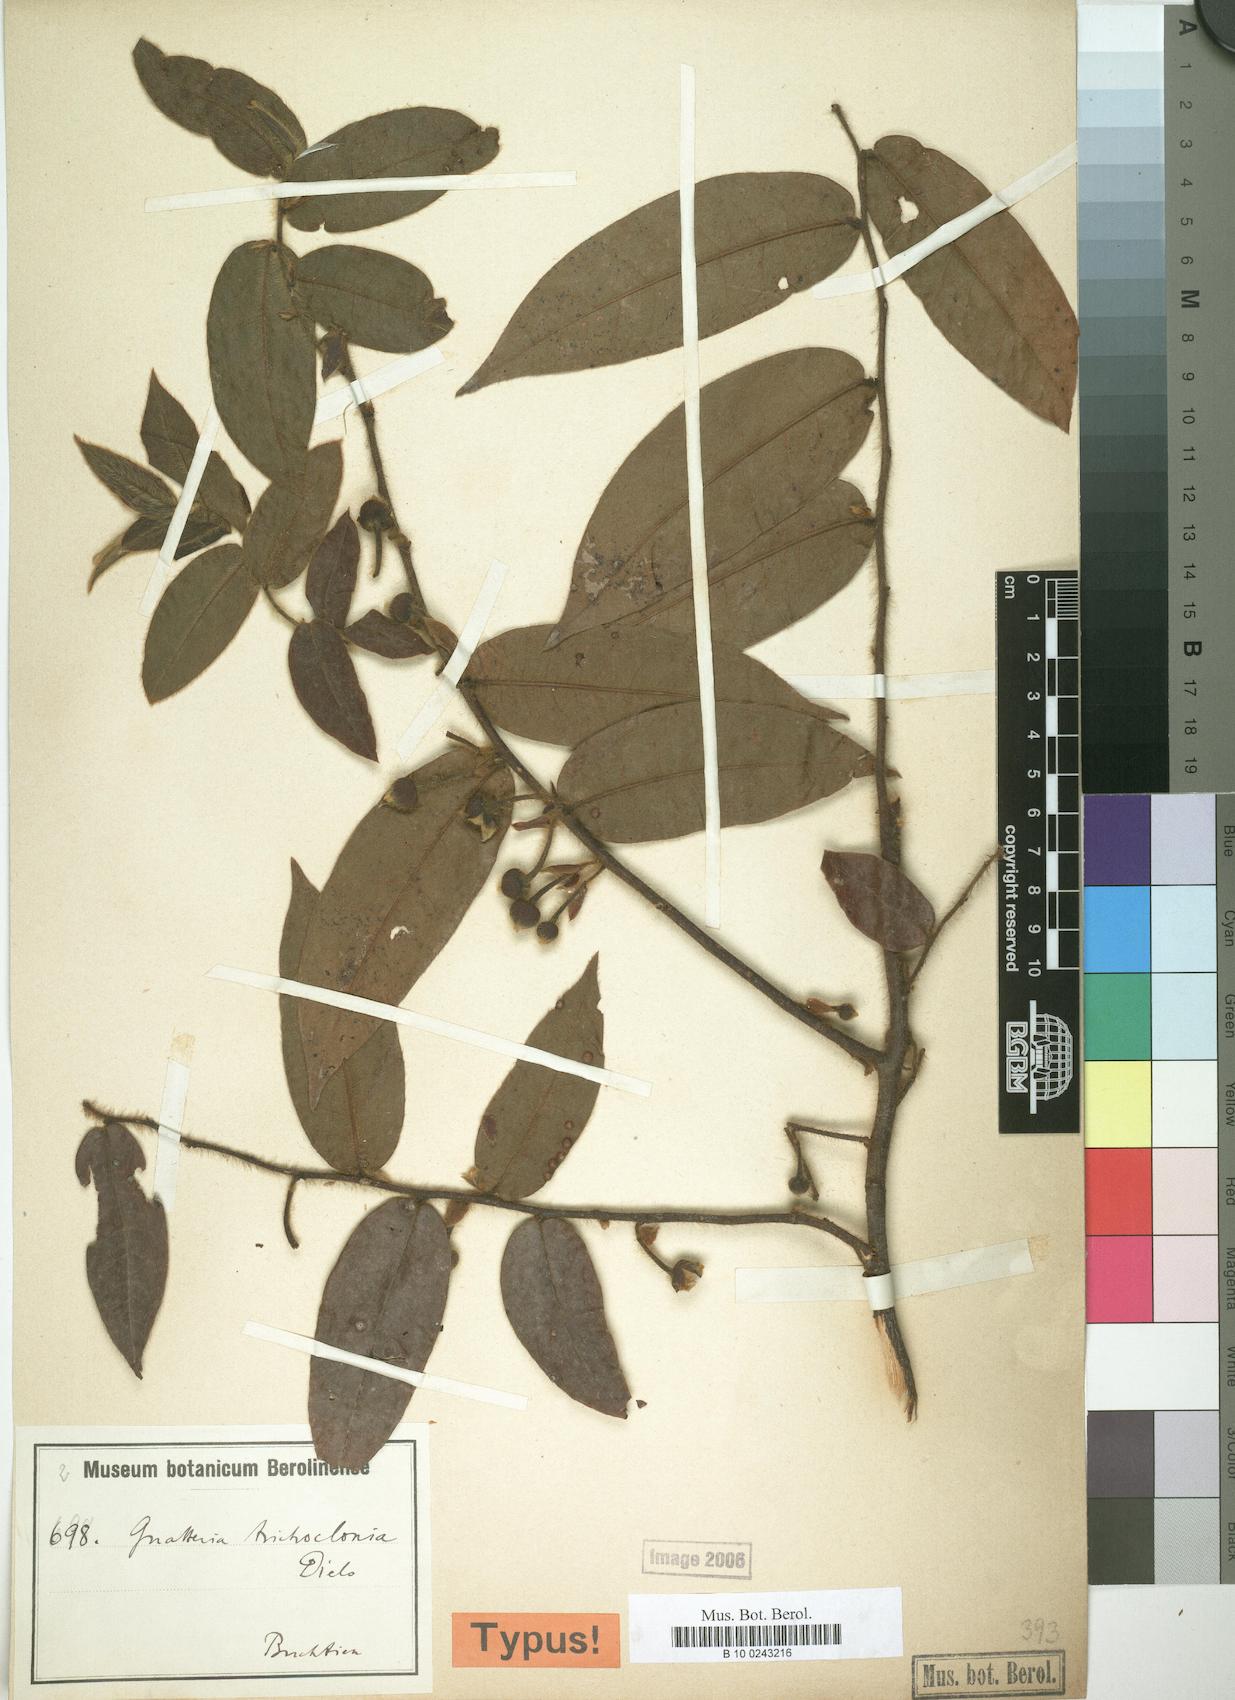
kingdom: Plantae
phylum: Tracheophyta
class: Magnoliopsida
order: Magnoliales
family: Annonaceae
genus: Guatteria
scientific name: Guatteria tomentosa
